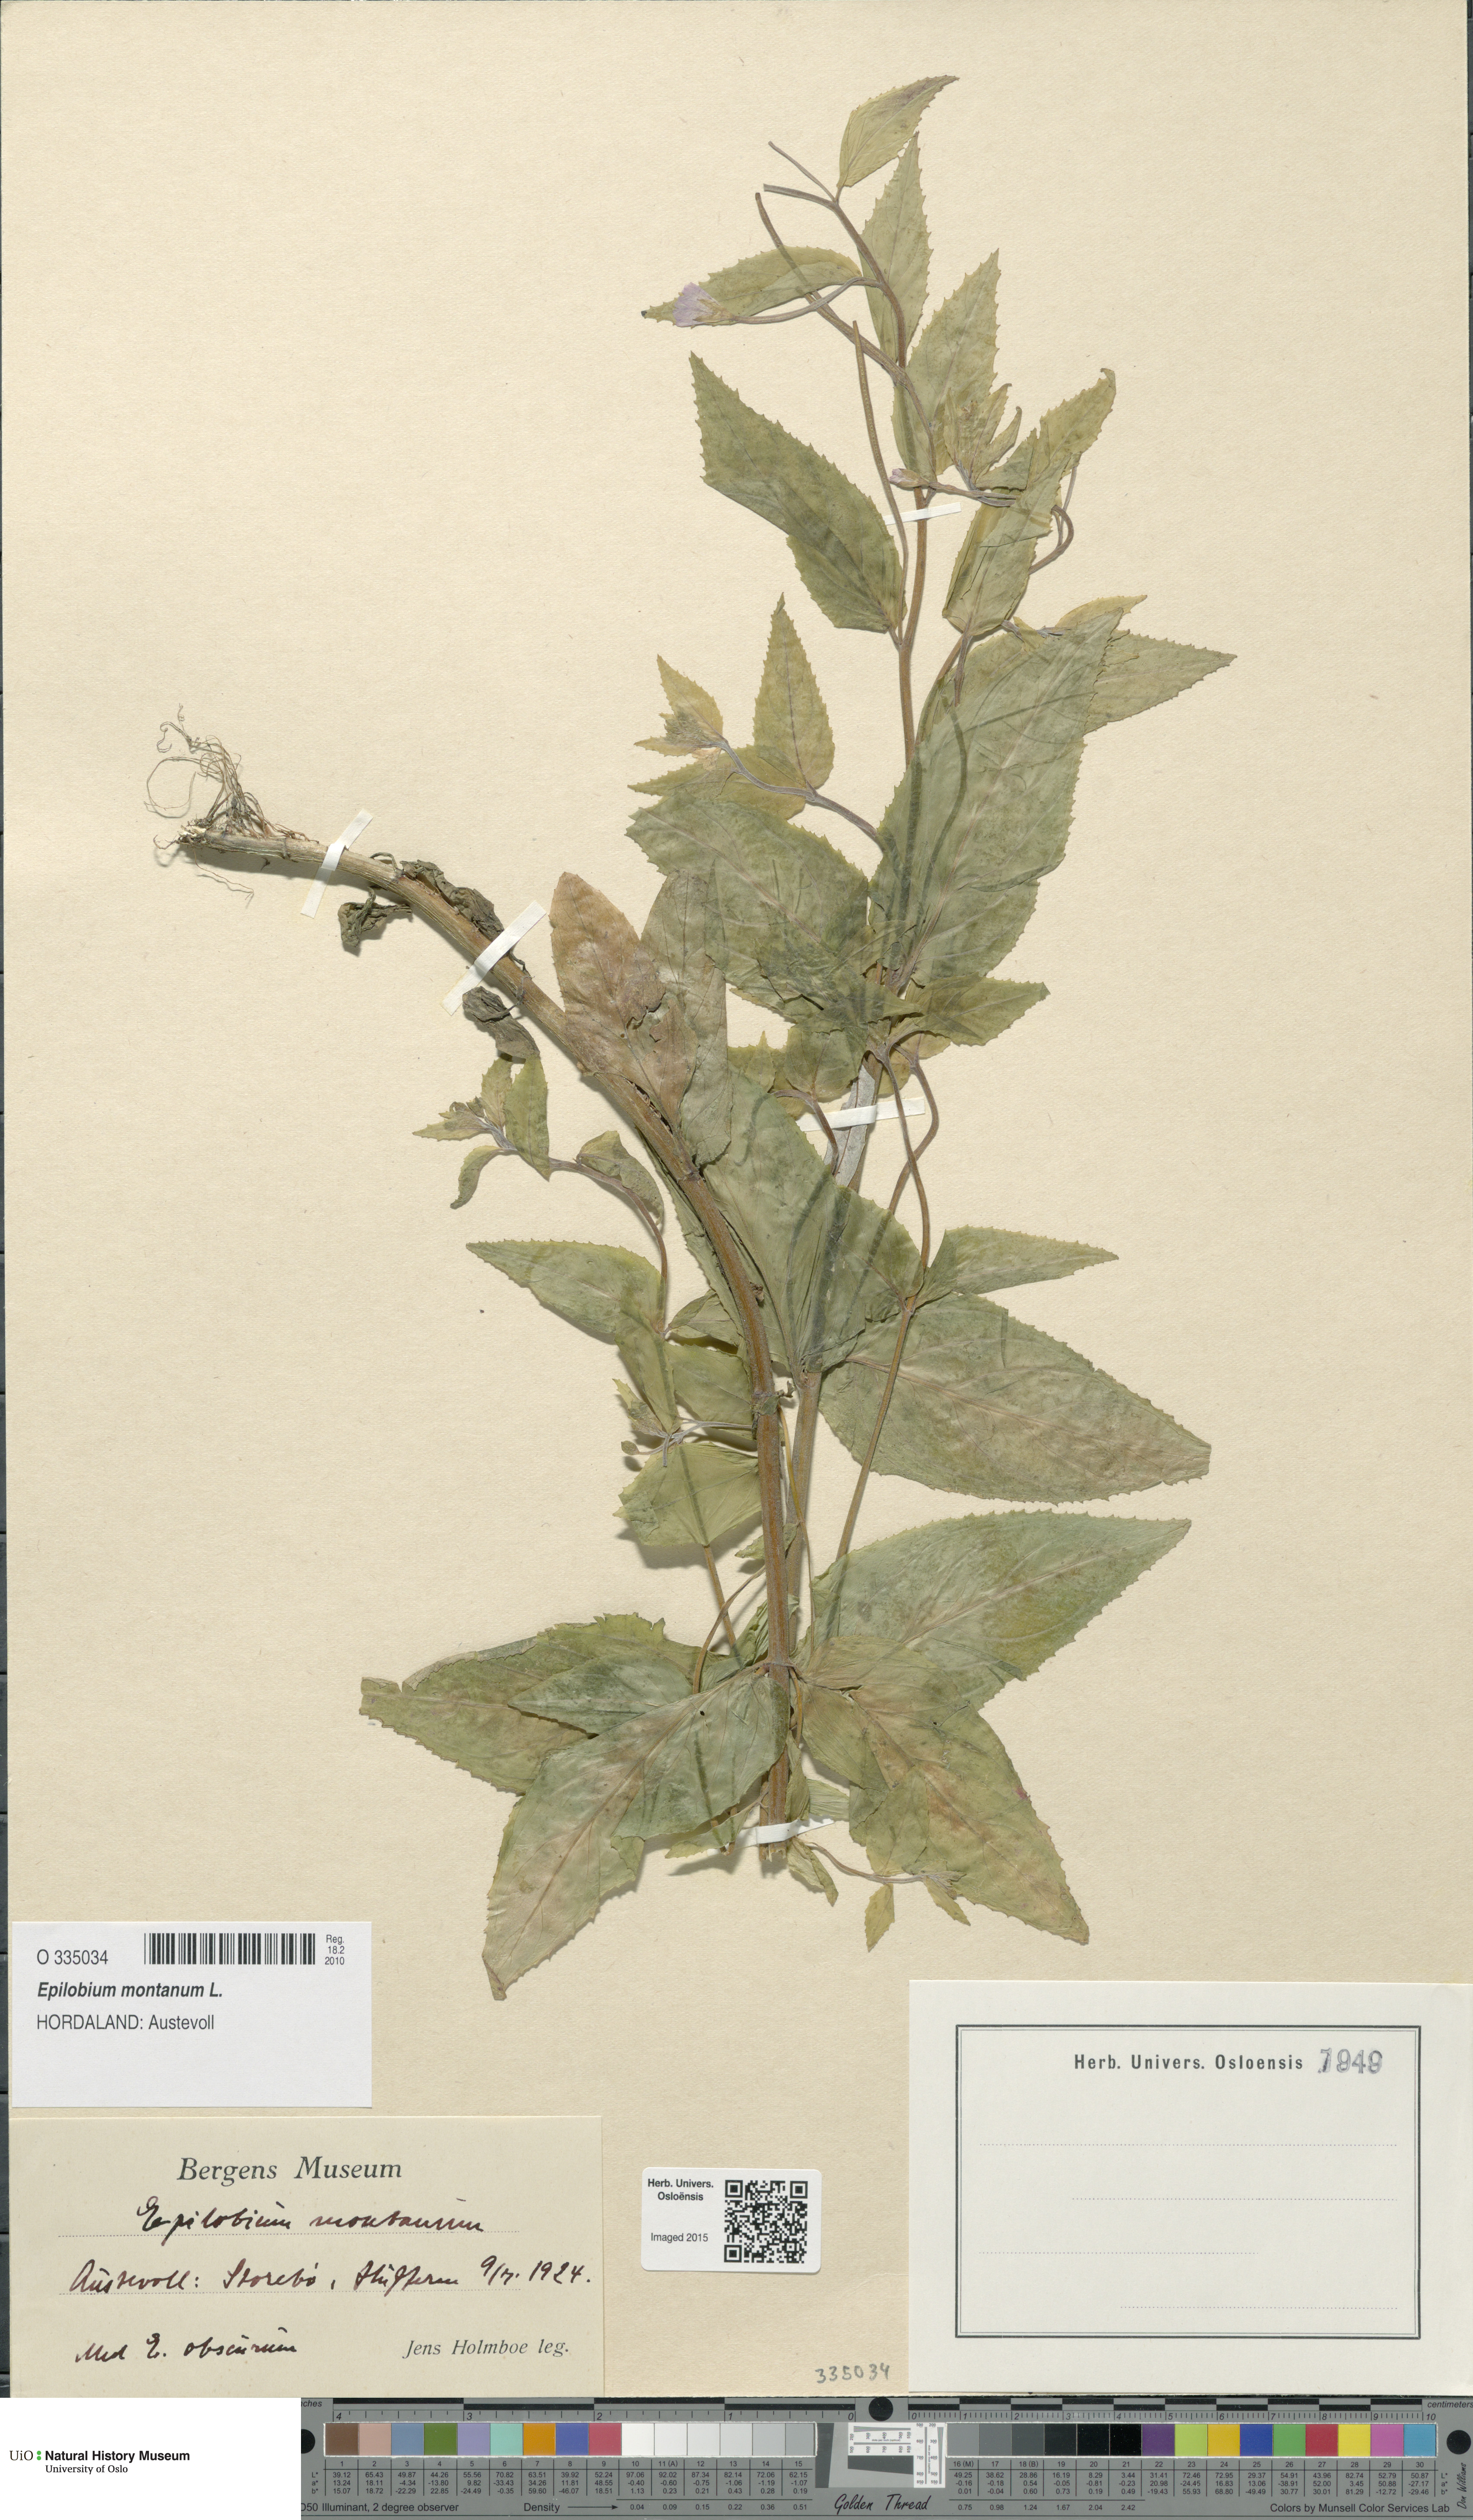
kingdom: Plantae
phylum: Tracheophyta
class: Magnoliopsida
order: Myrtales
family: Onagraceae
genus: Epilobium
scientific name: Epilobium montanum
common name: Broad-leaved willowherb
